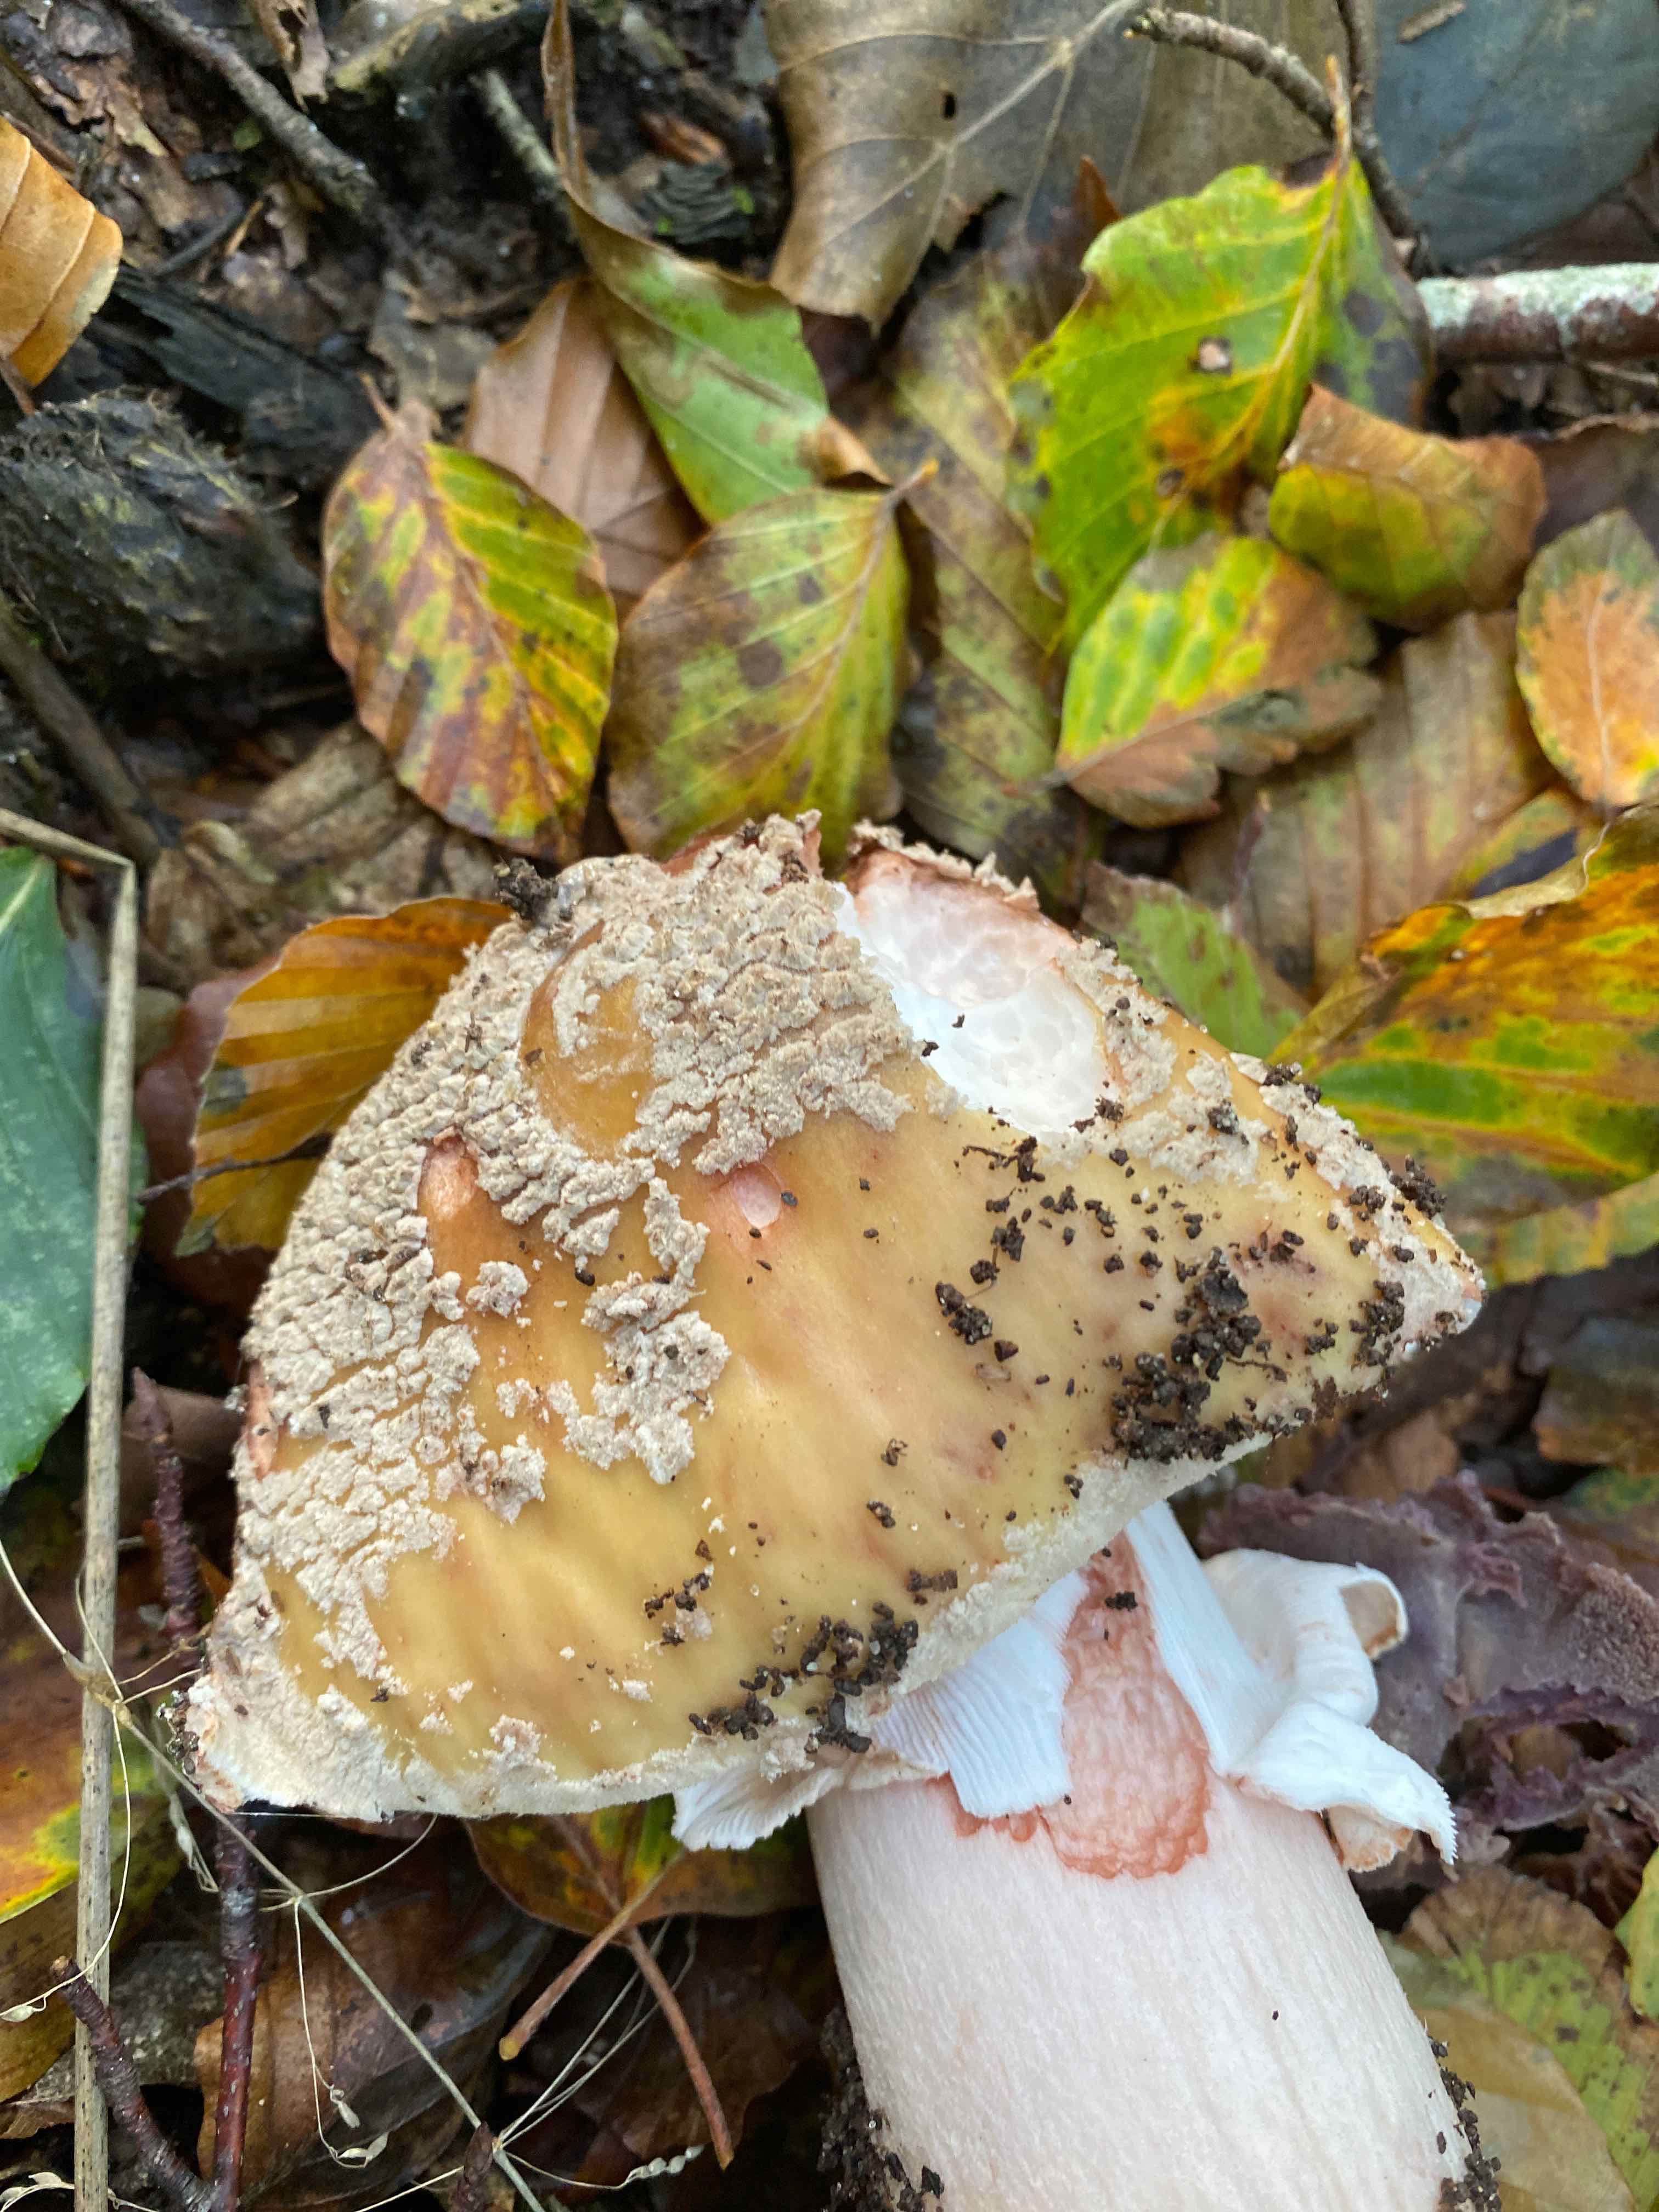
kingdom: Fungi
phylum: Basidiomycota
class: Agaricomycetes
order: Agaricales
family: Amanitaceae
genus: Amanita
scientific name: Amanita rubescens
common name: rødmende fluesvamp
